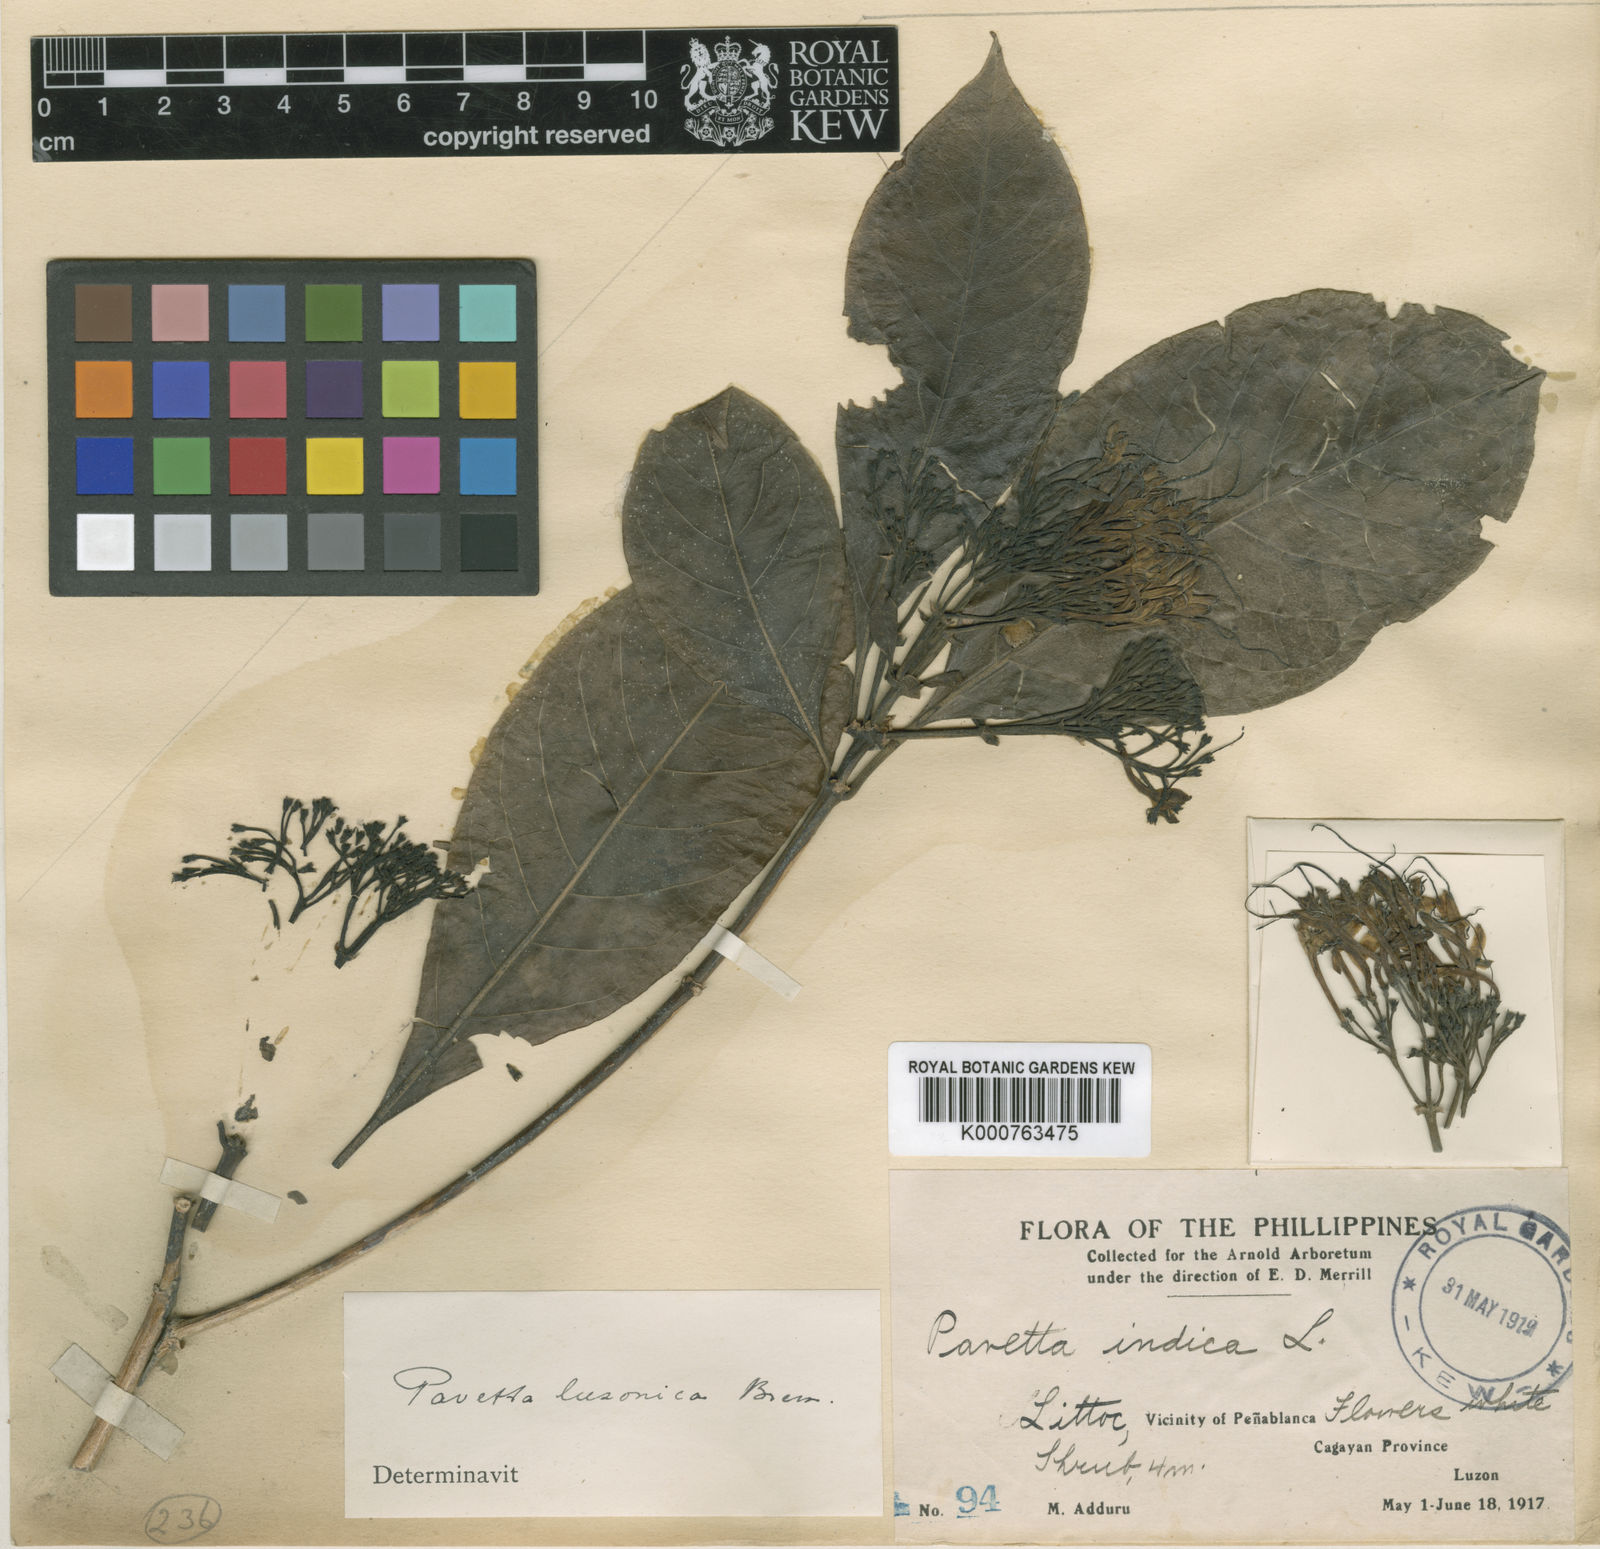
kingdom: Plantae
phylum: Tracheophyta
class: Magnoliopsida
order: Gentianales
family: Rubiaceae
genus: Pavetta
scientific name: Pavetta luzonica
